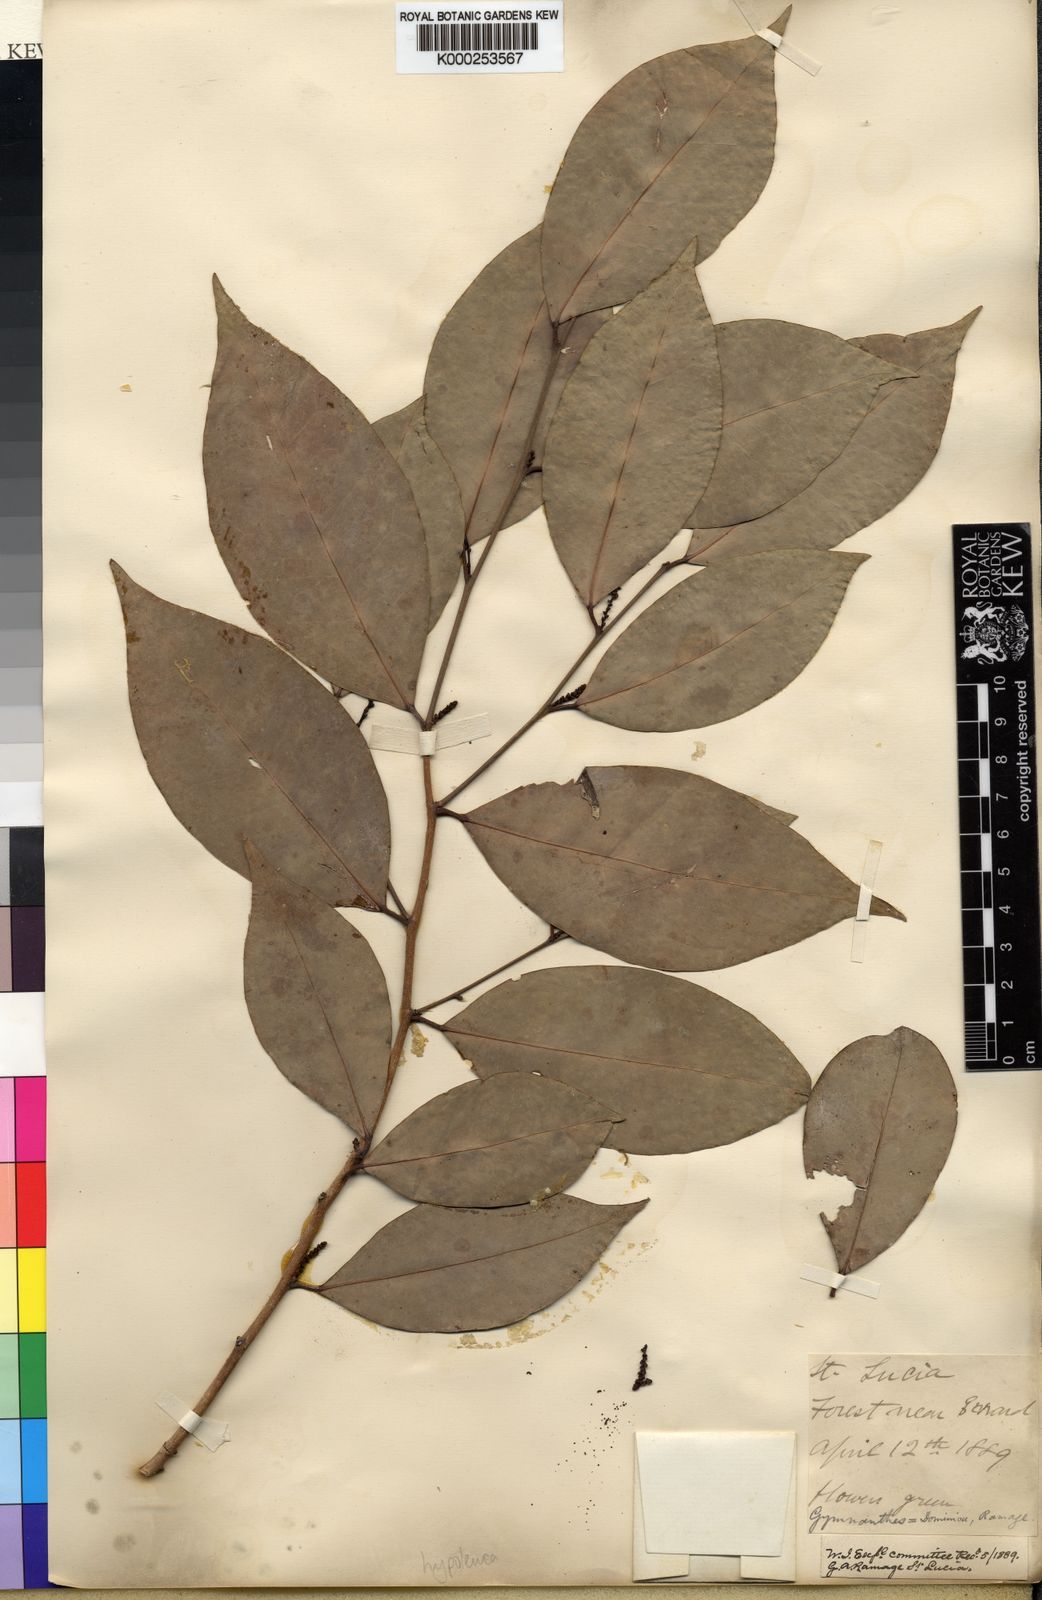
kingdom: Plantae
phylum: Tracheophyta
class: Magnoliopsida
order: Malpighiales
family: Euphorbiaceae
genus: Gymnanthes
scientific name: Gymnanthes hypoleuca
